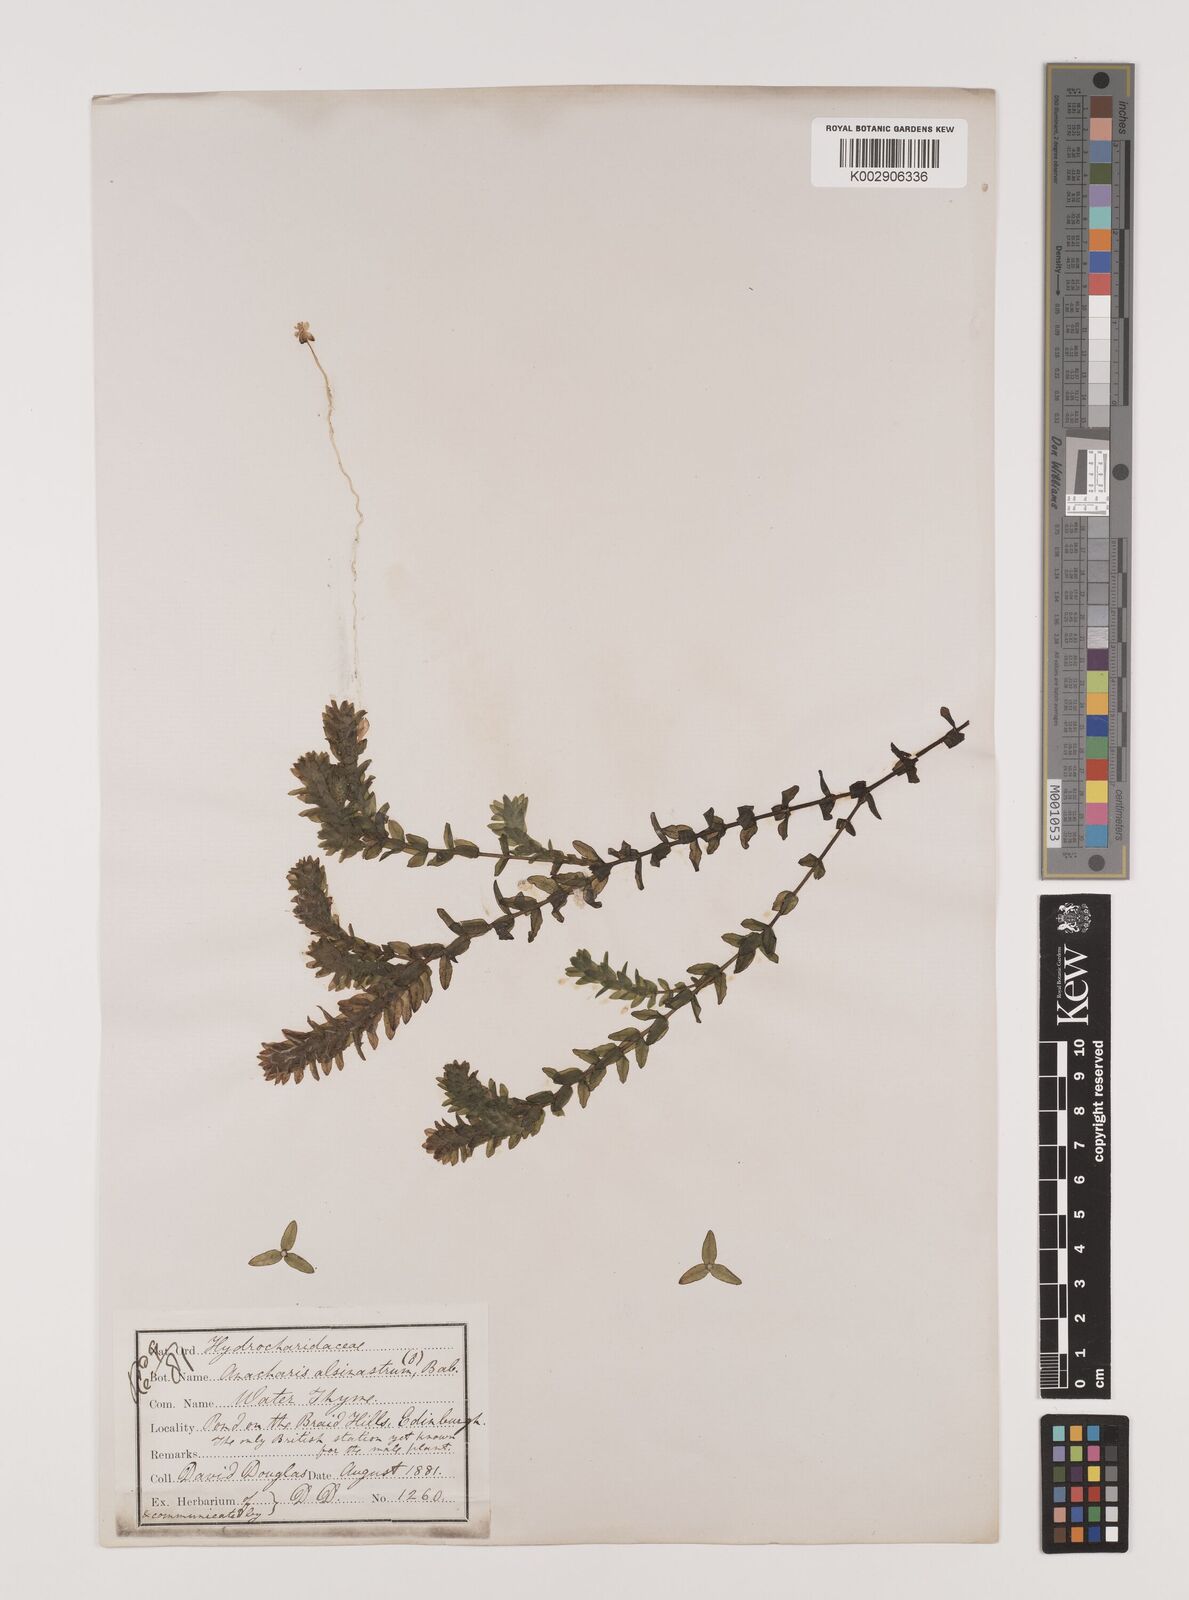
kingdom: Plantae
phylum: Tracheophyta
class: Liliopsida
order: Alismatales
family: Hydrocharitaceae
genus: Elodea
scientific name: Elodea canadensis
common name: Canadian waterweed
